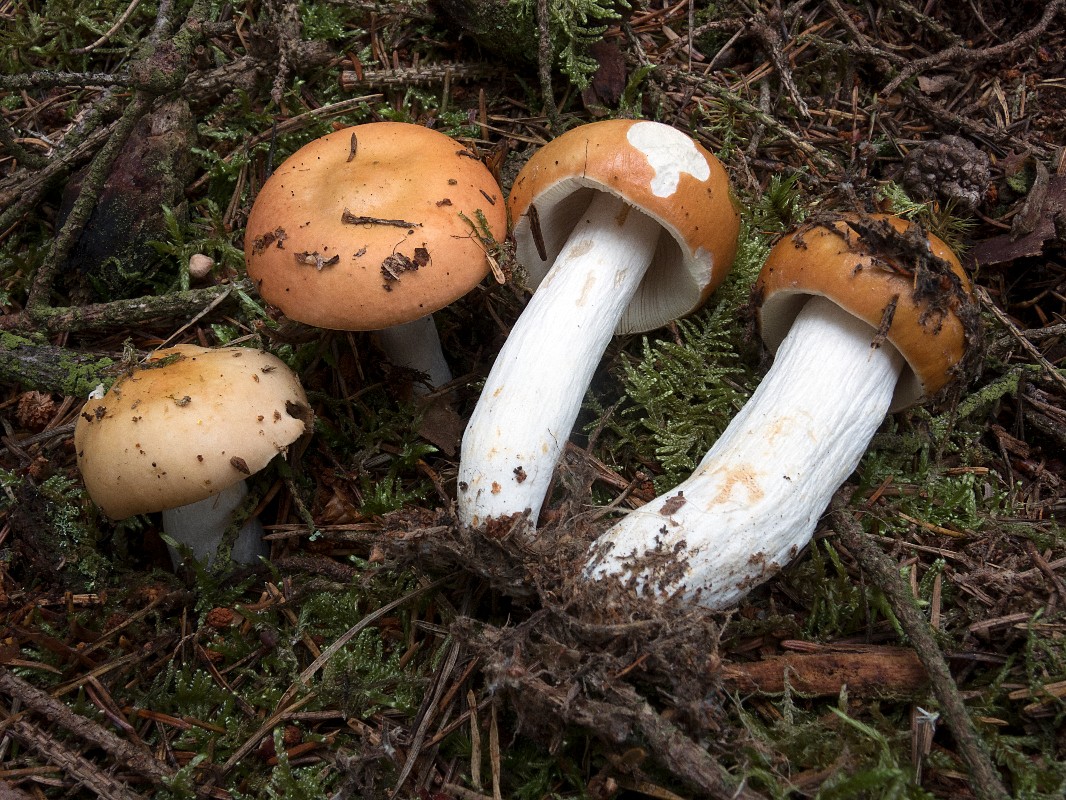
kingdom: Fungi
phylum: Basidiomycota
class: Agaricomycetes
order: Russulales
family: Russulaceae
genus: Russula
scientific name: Russula decolorans
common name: afblegende skørhat
